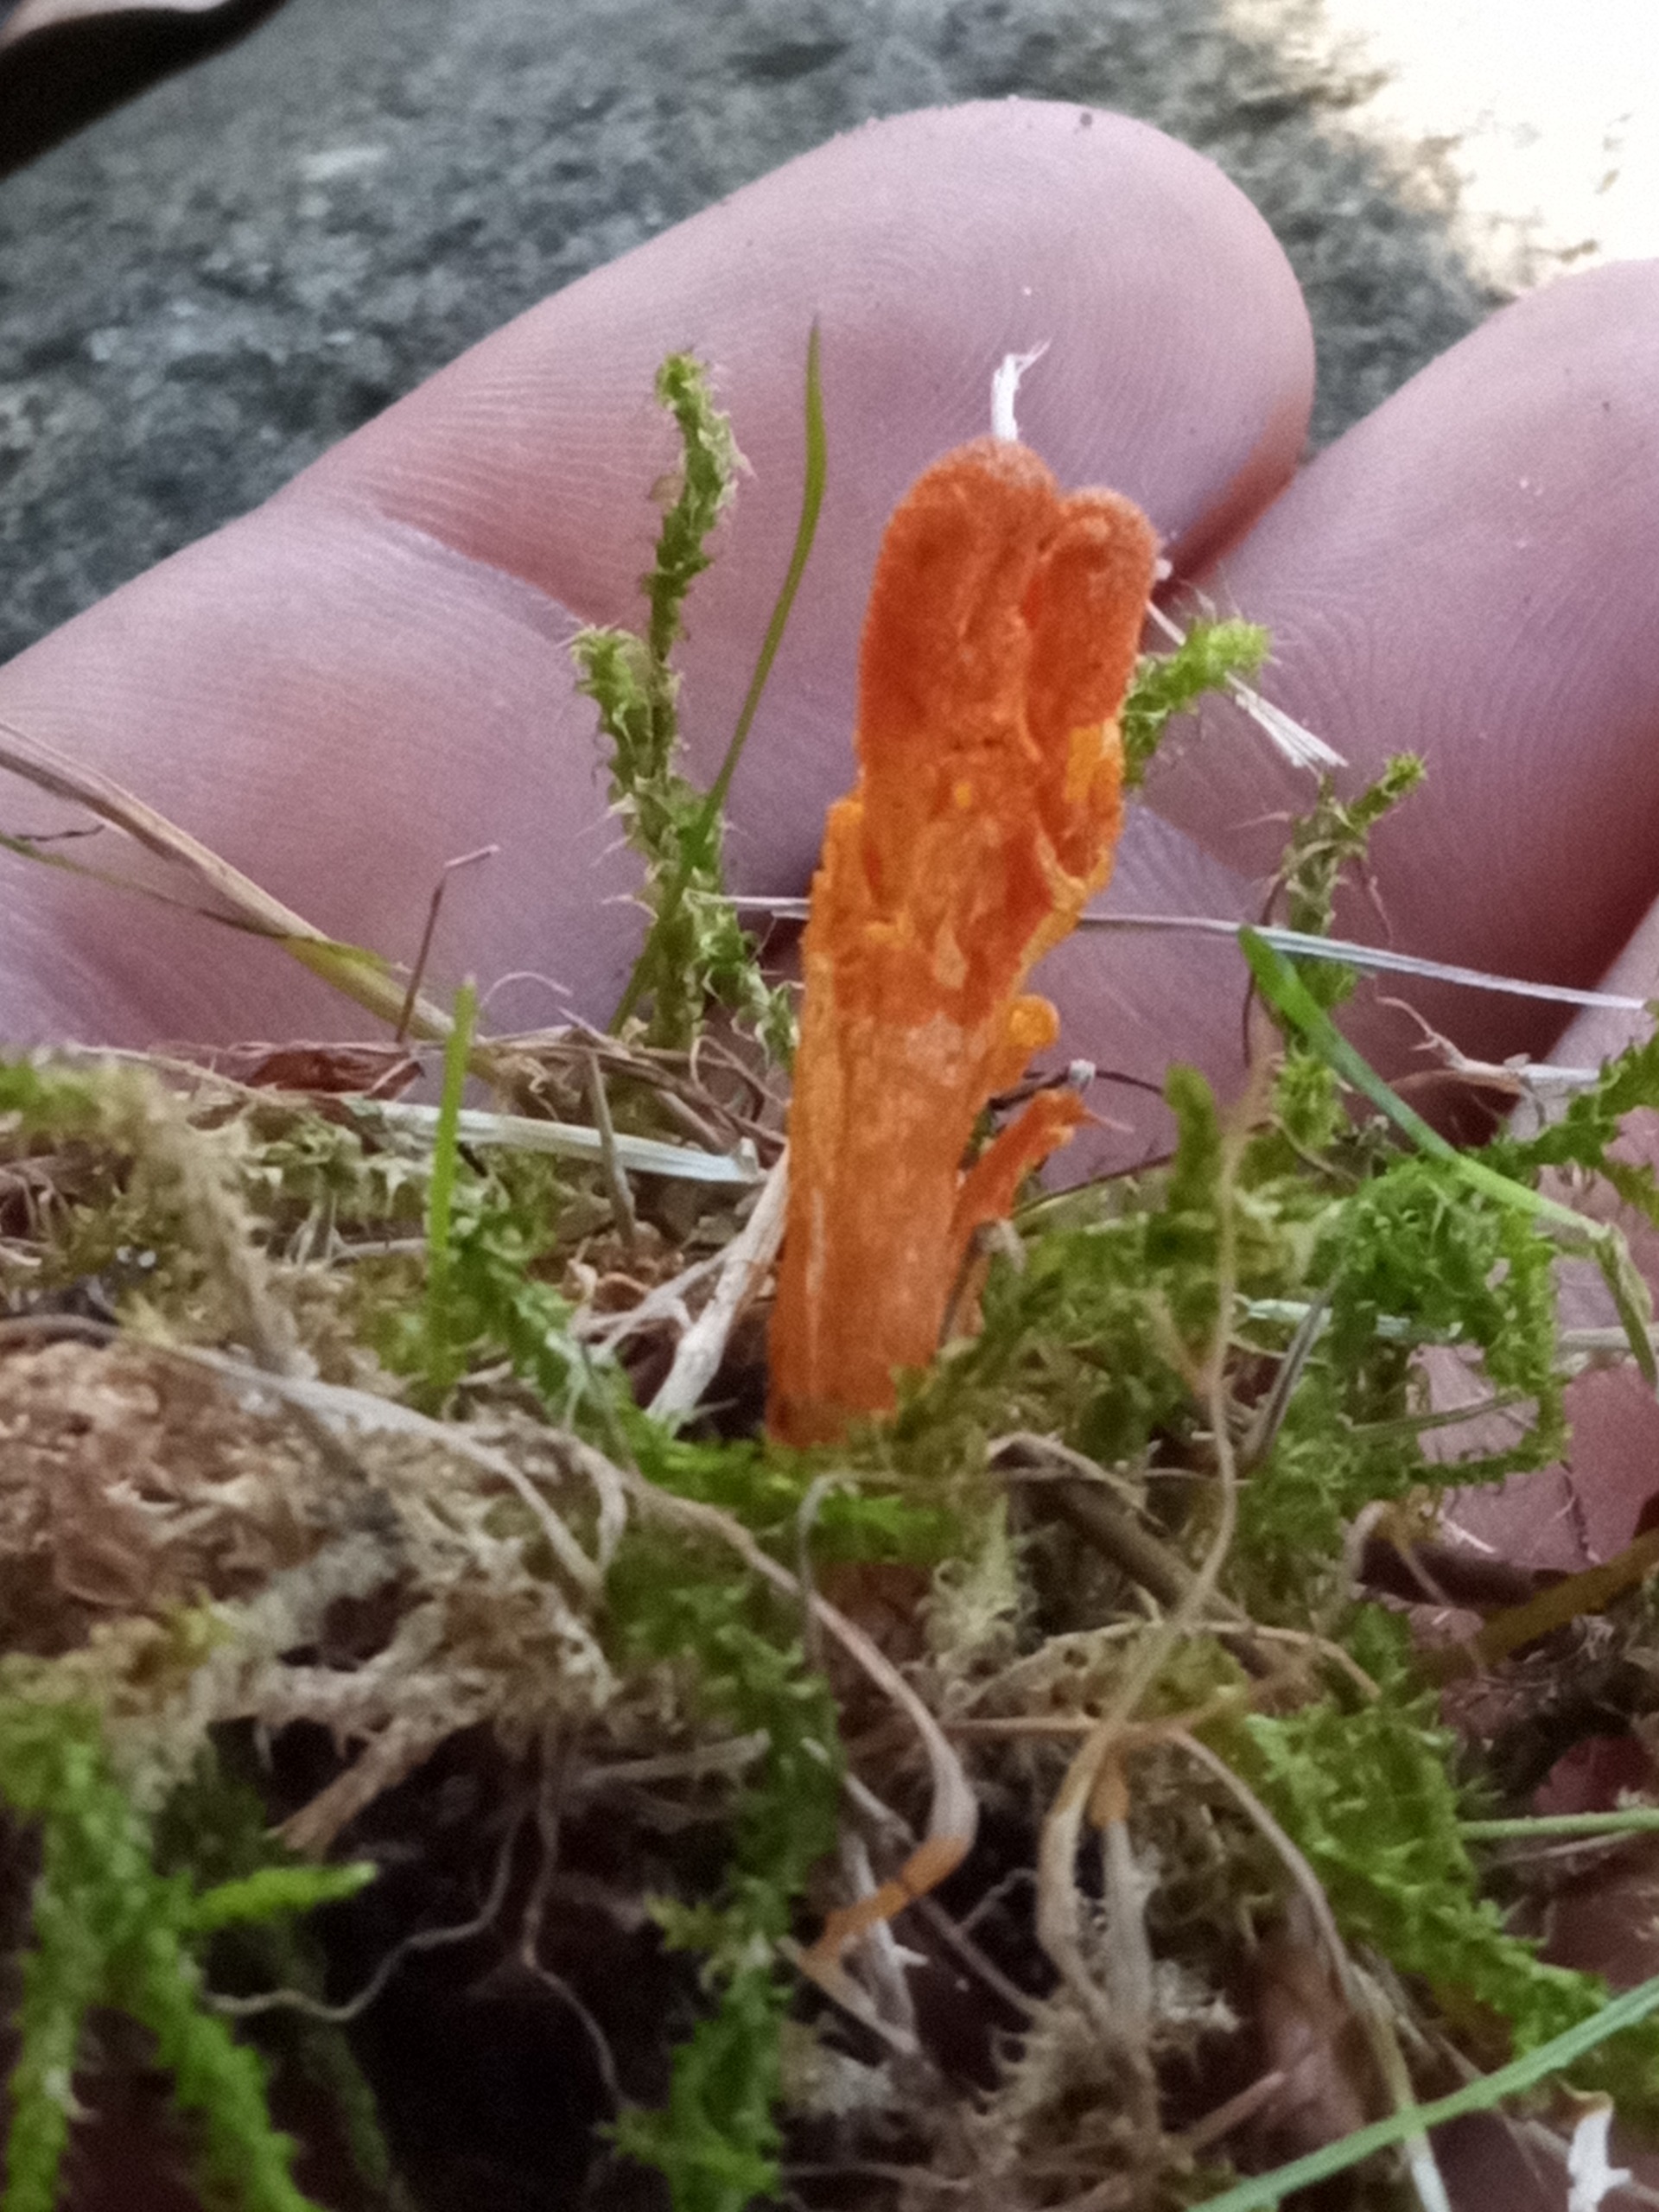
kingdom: Fungi
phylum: Ascomycota
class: Sordariomycetes
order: Hypocreales
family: Cordycipitaceae
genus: Cordyceps
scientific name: Cordyceps militaris
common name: Puppe-snyltekølle
